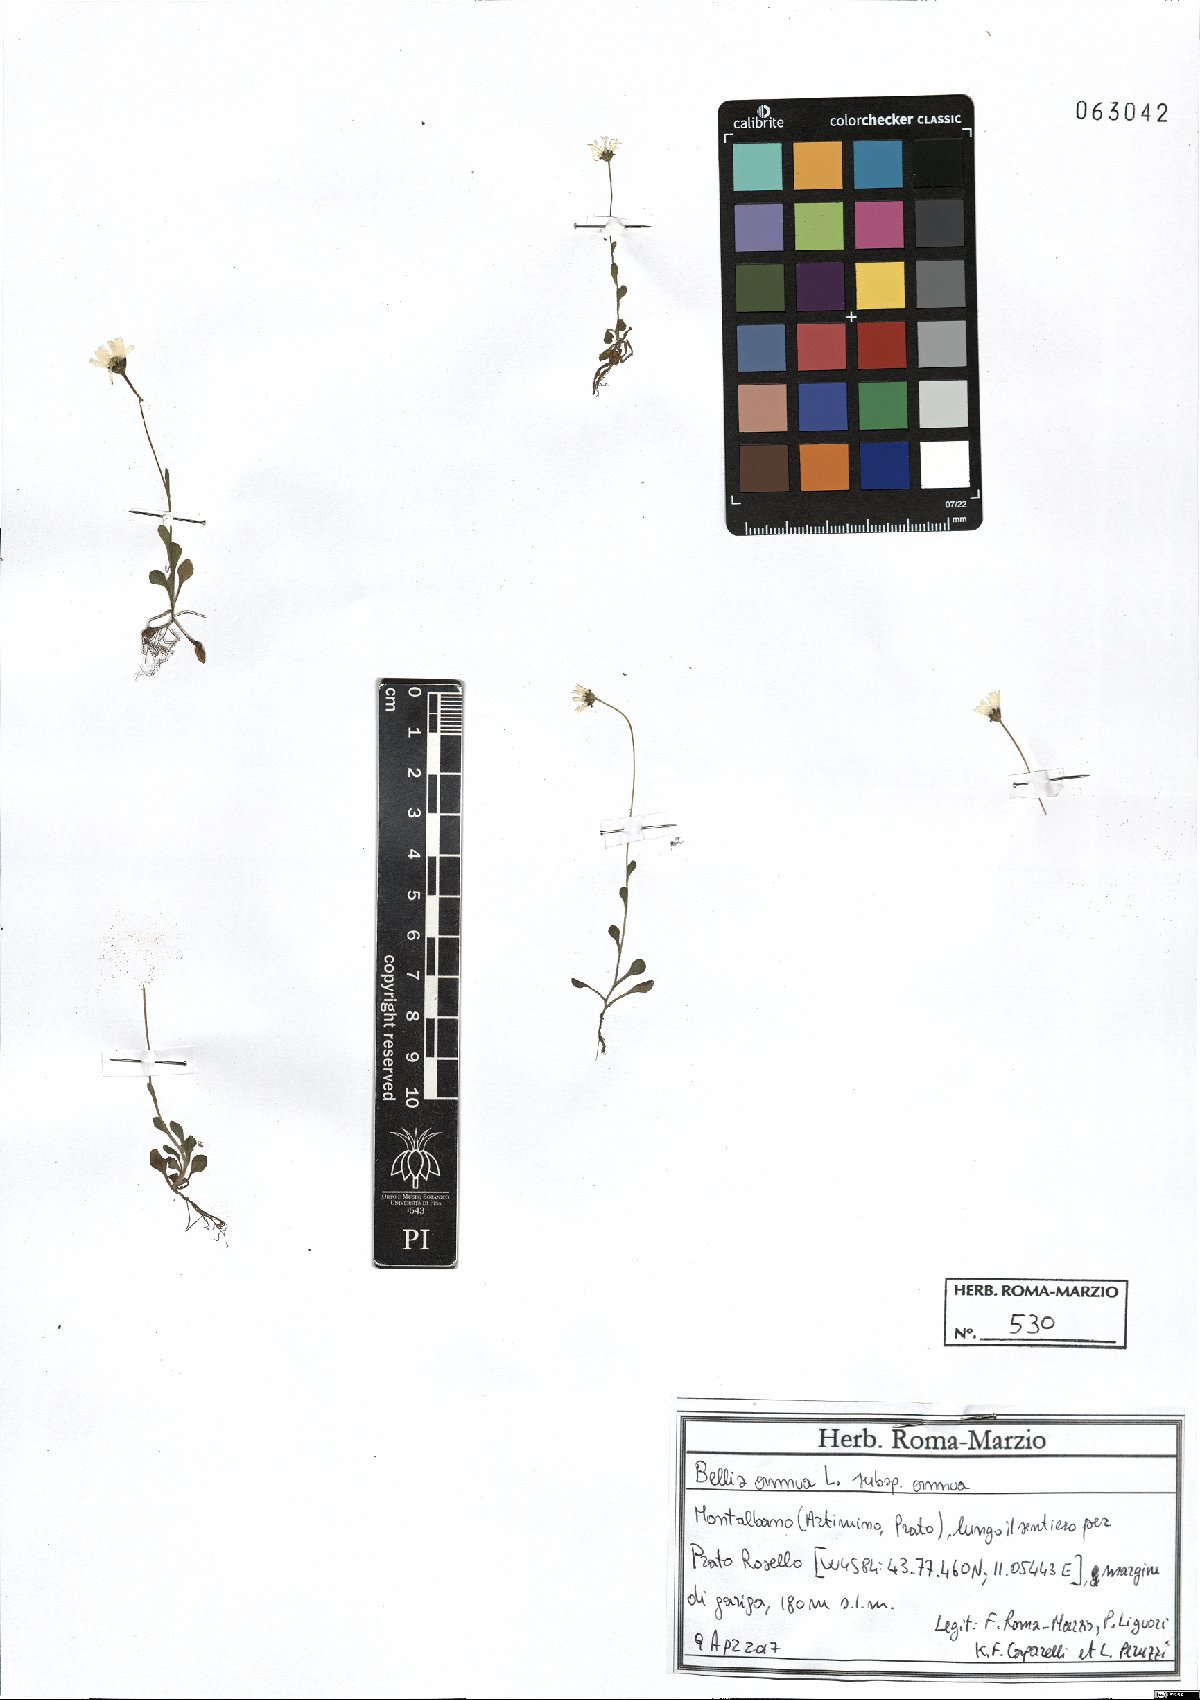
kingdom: Plantae
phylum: Tracheophyta
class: Magnoliopsida
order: Asterales
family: Asteraceae
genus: Bellis
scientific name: Bellis annua
